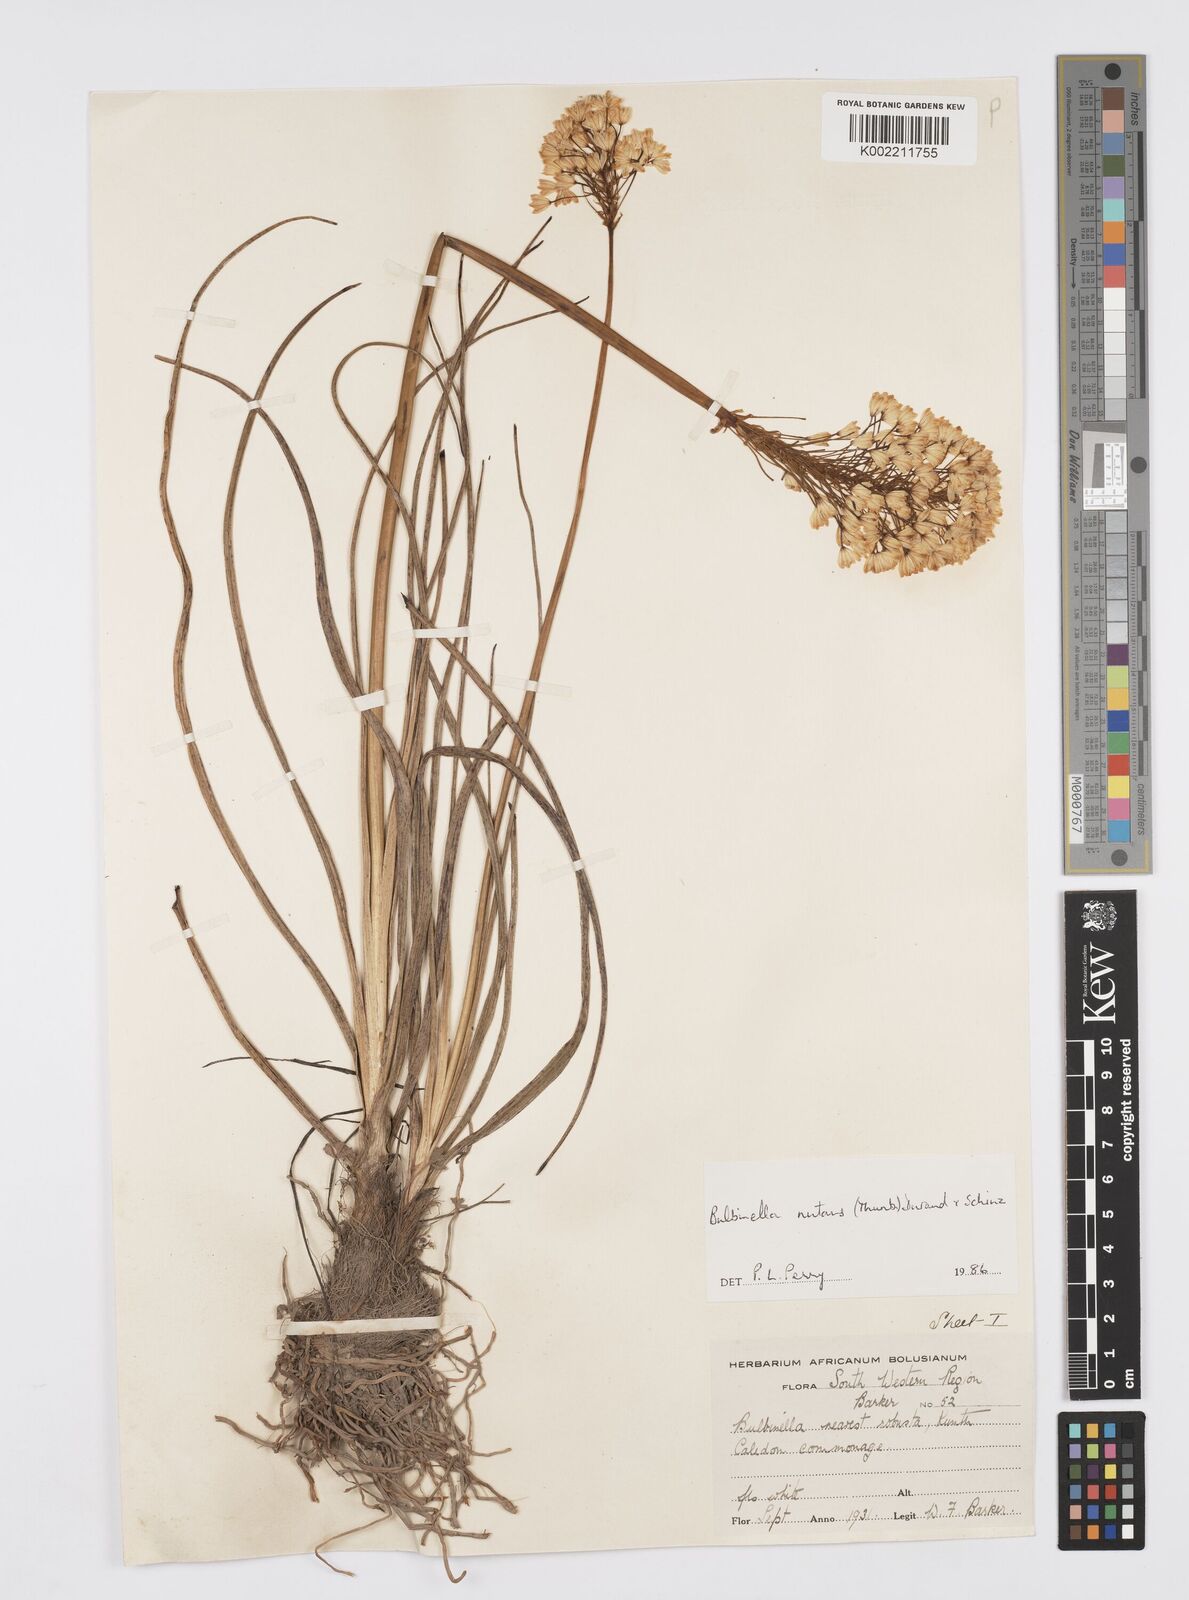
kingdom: Plantae
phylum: Tracheophyta
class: Liliopsida
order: Asparagales
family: Asphodelaceae
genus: Bulbinella
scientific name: Bulbinella nutans
